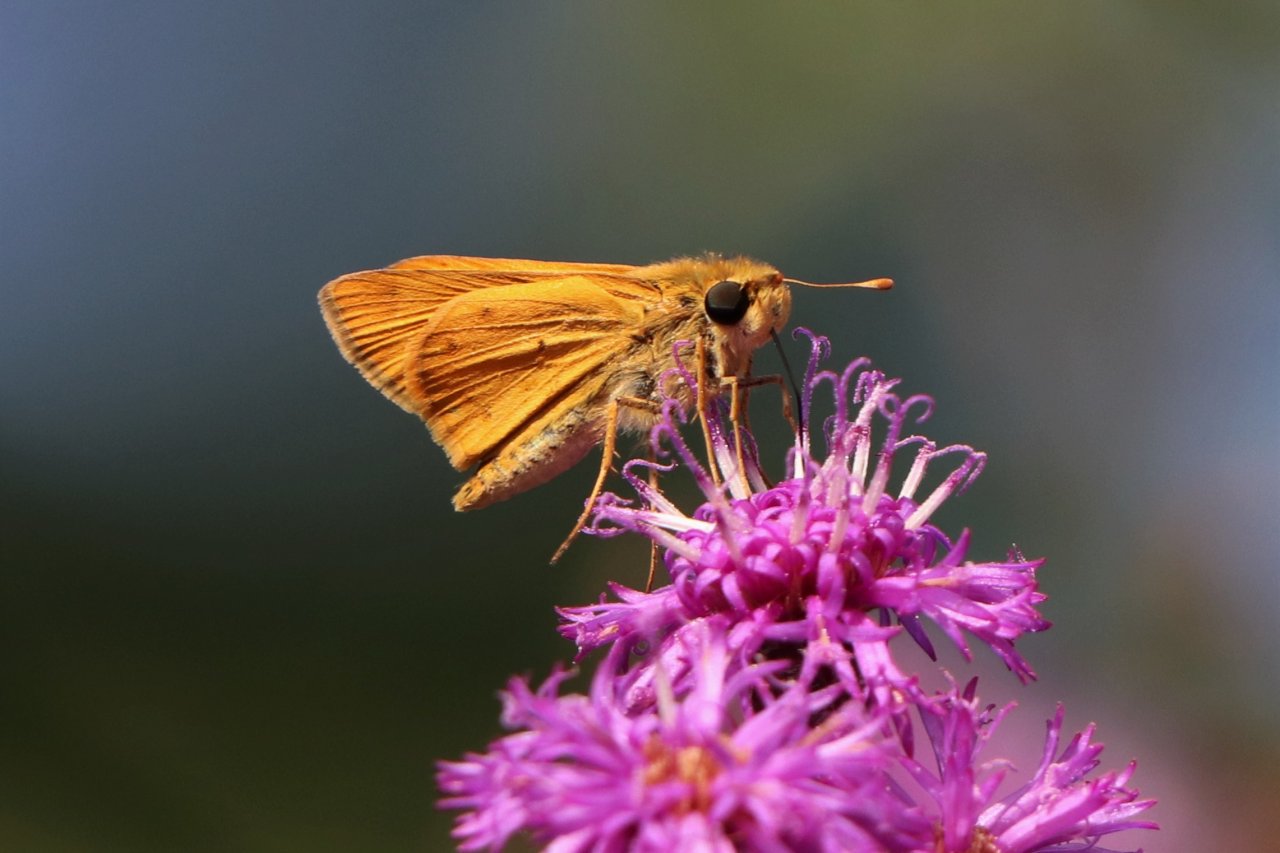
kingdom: Animalia
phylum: Arthropoda
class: Insecta
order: Lepidoptera
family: Hesperiidae
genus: Hylephila
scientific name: Hylephila phyleus
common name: Fiery Skipper
